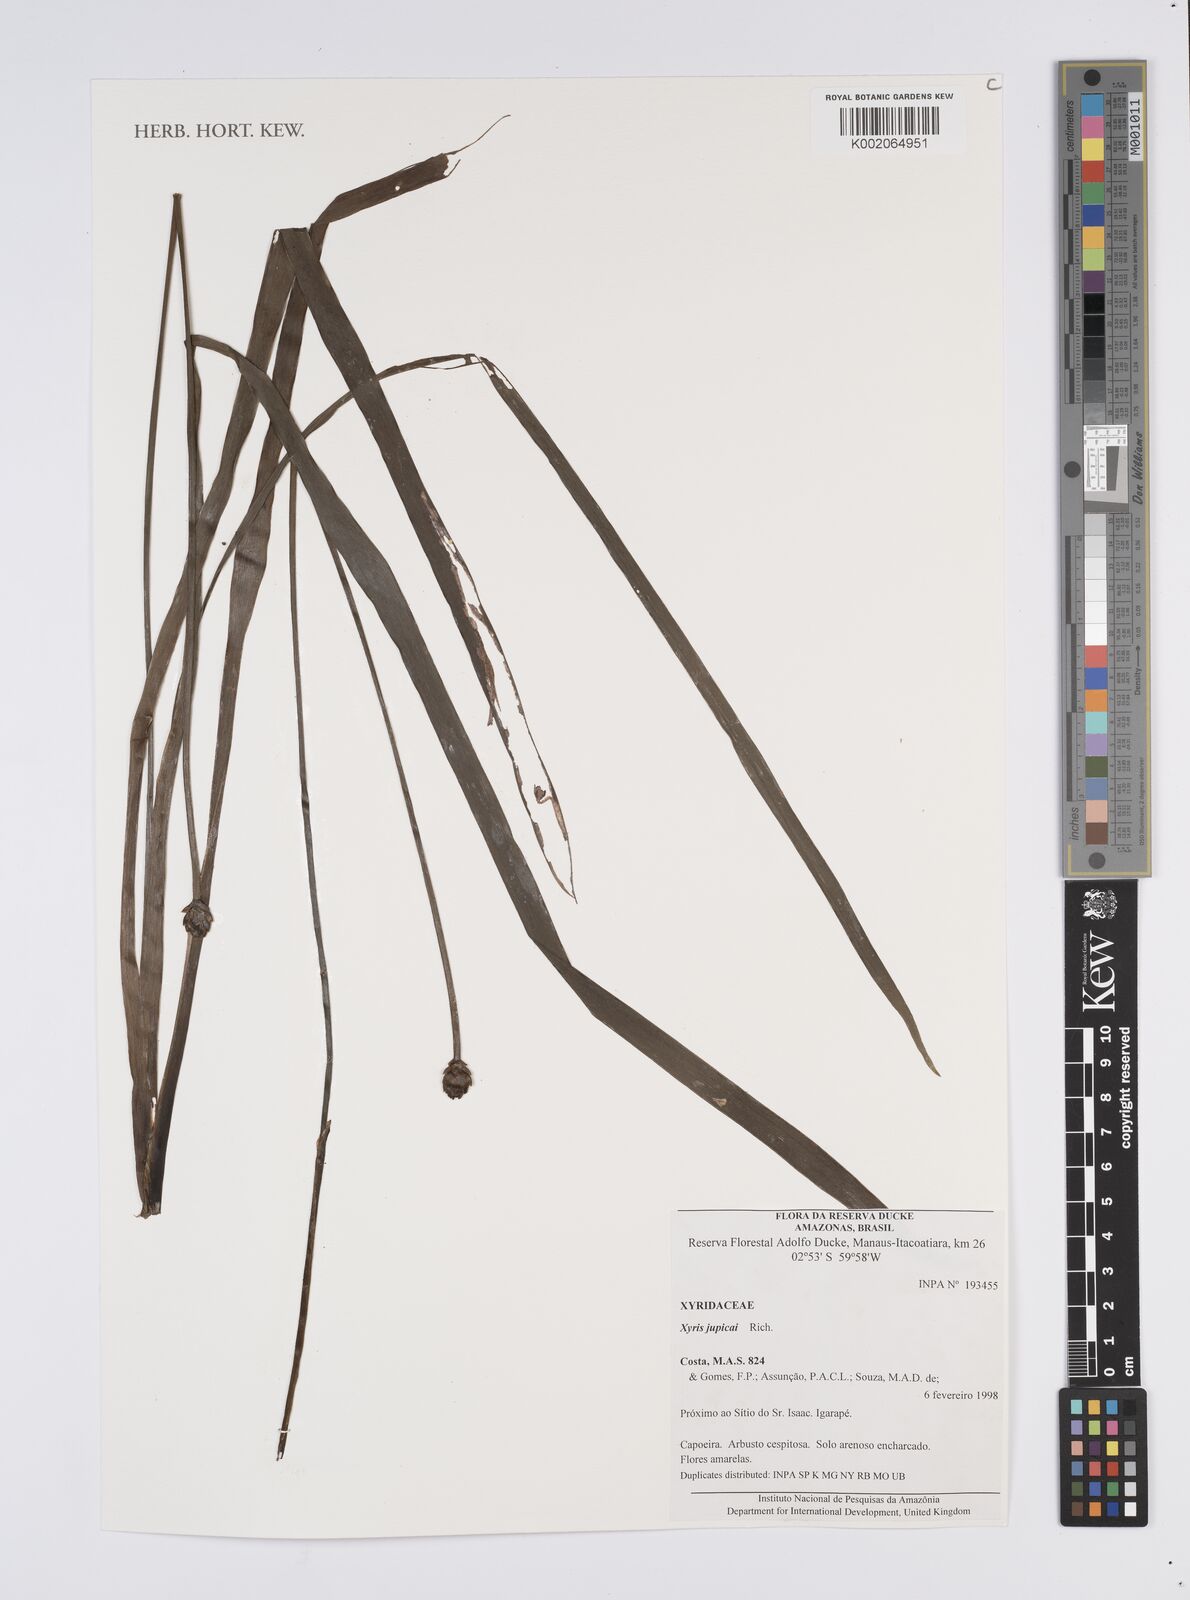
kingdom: Plantae
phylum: Tracheophyta
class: Liliopsida
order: Poales
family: Xyridaceae
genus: Xyris
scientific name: Xyris jupicai
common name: Richard's yelloweyed grass
